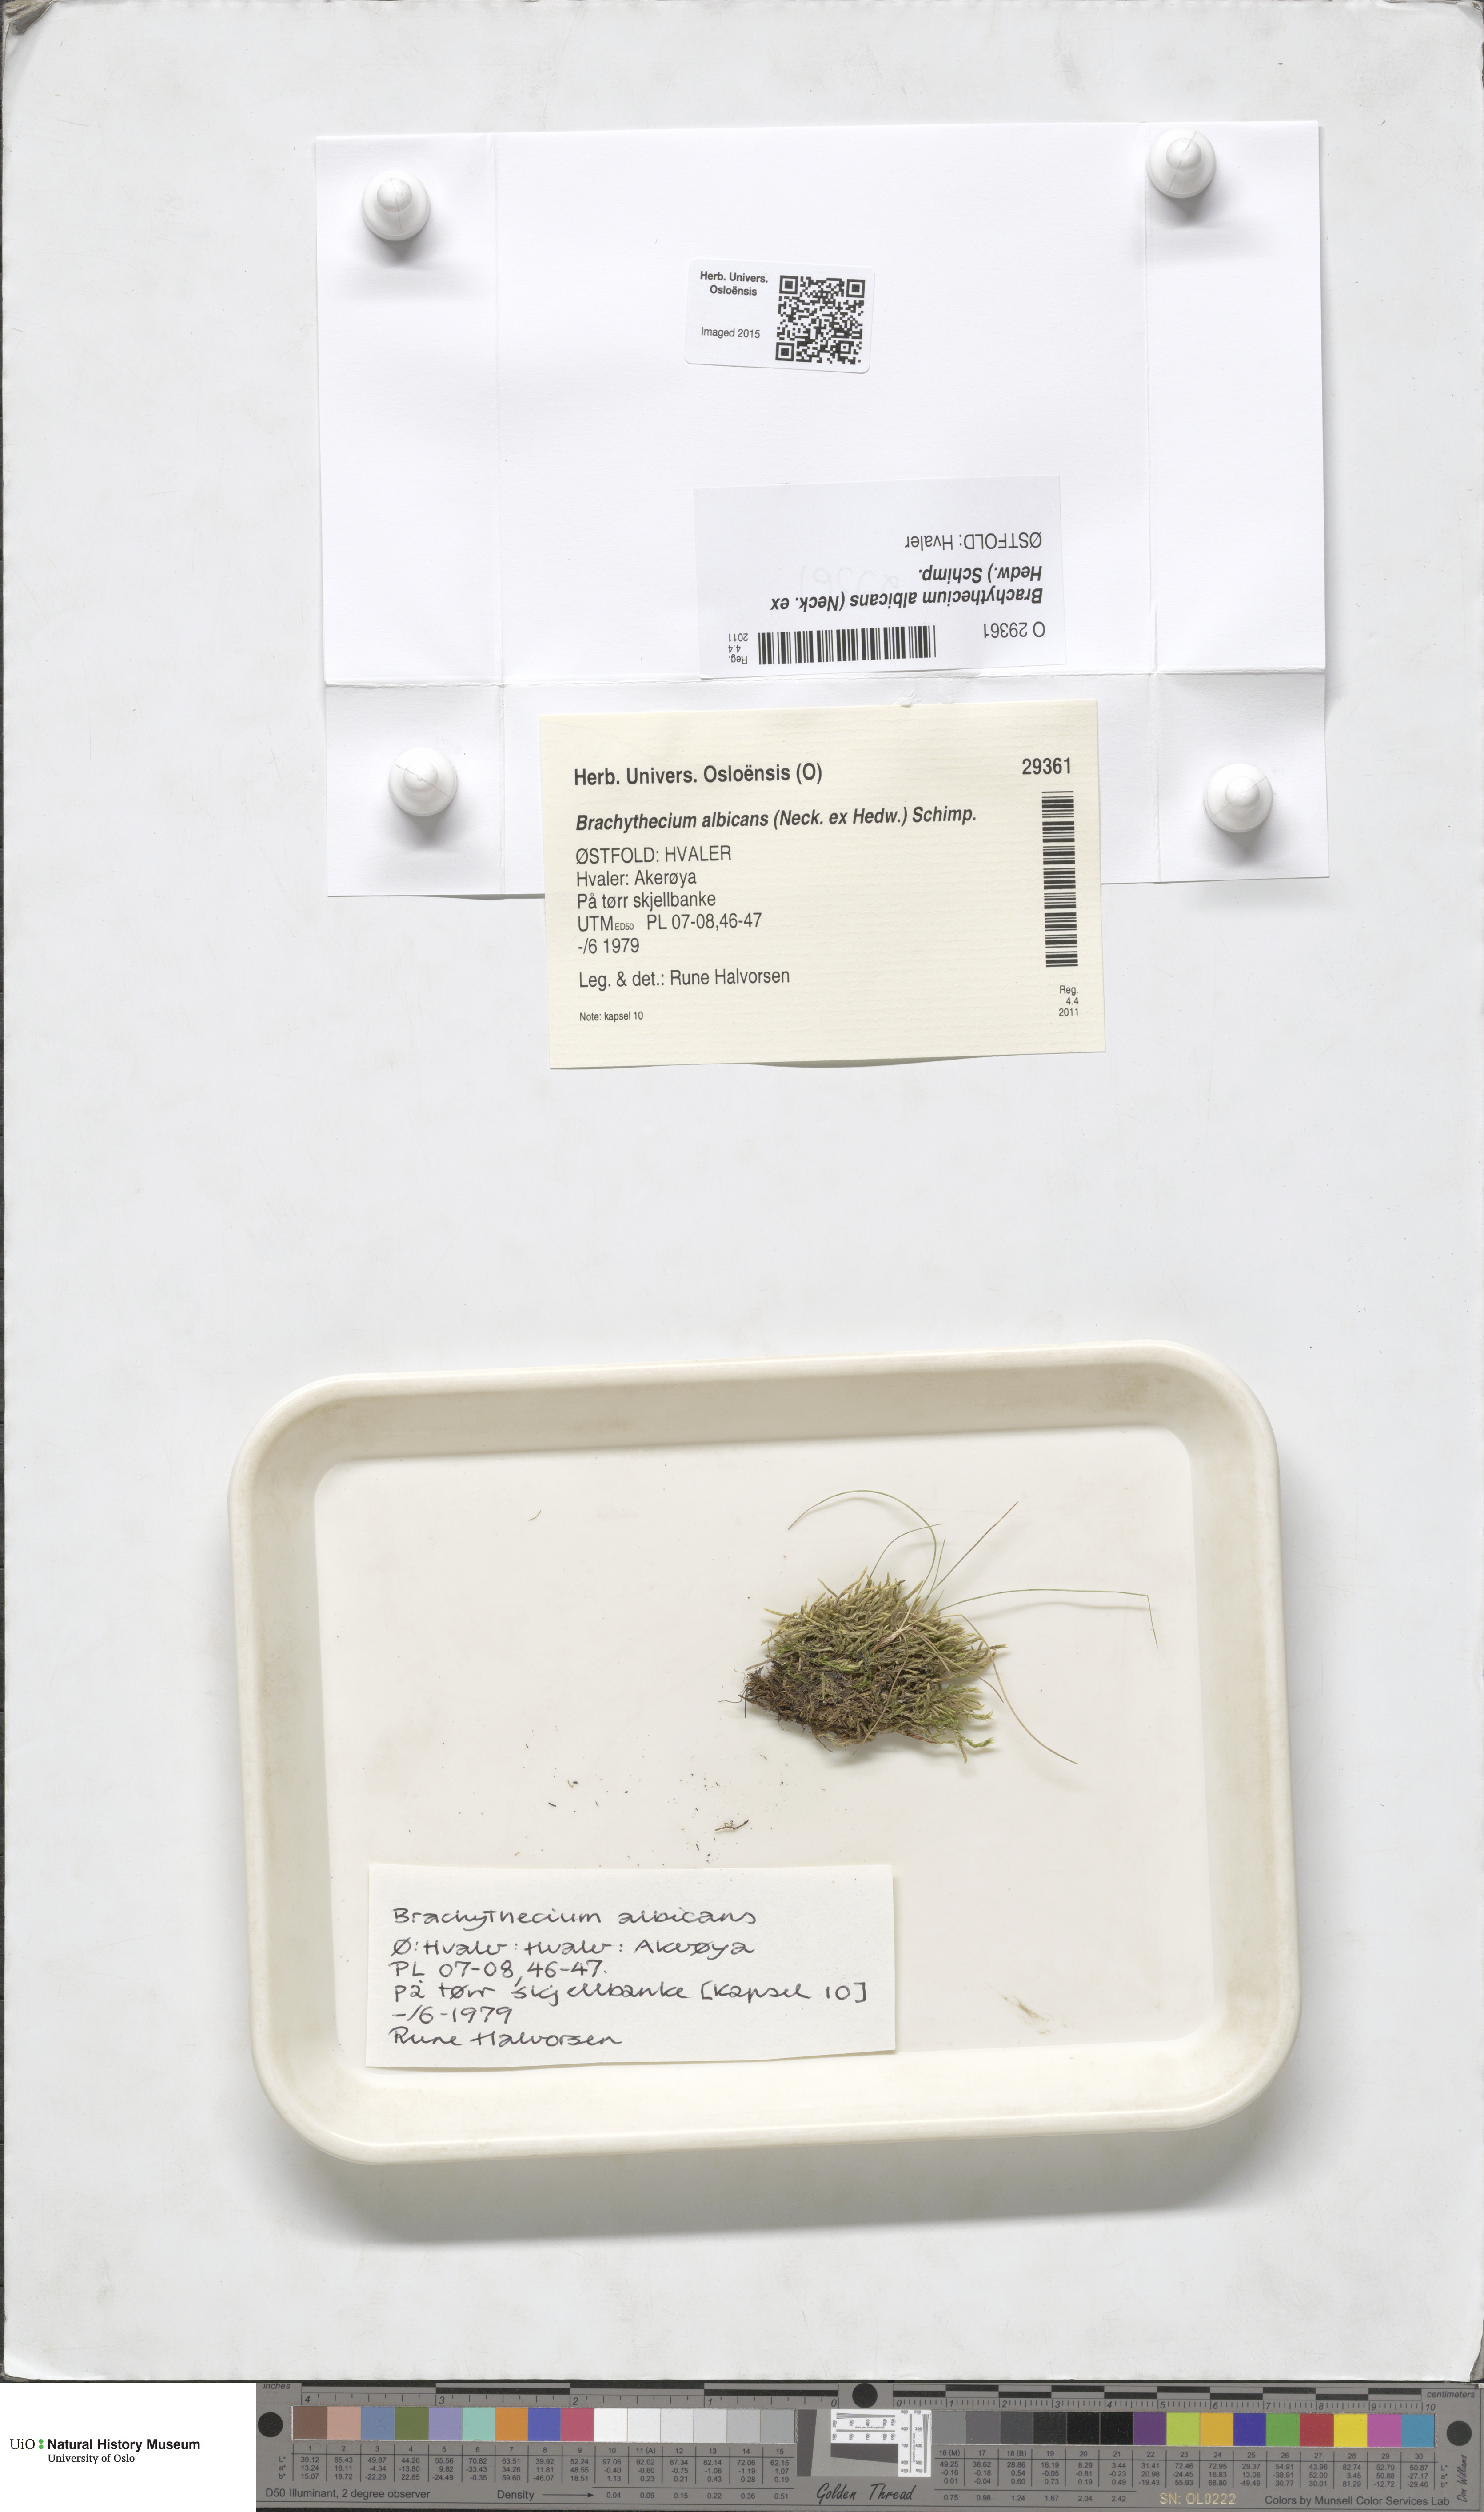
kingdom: Plantae
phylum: Bryophyta
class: Bryopsida
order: Hypnales
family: Brachytheciaceae
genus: Brachythecium
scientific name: Brachythecium albicans
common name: Whitish ragged moss
